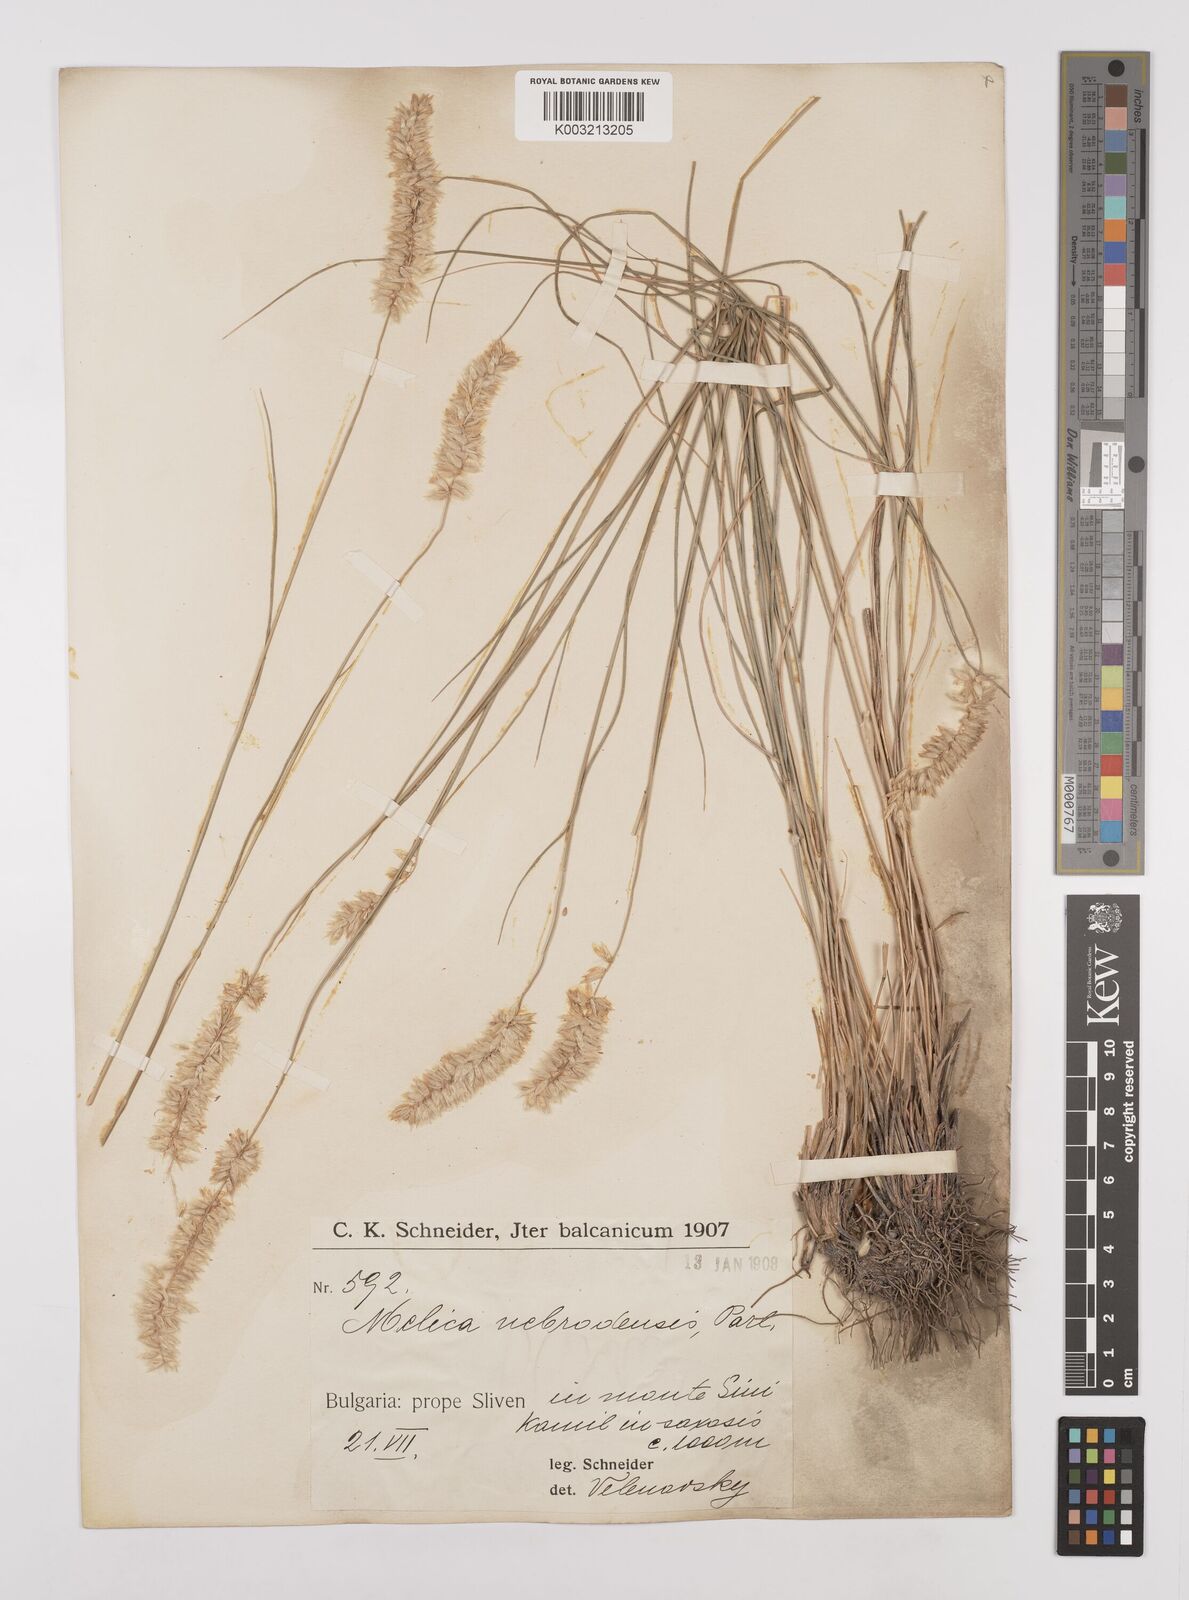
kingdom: Plantae
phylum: Tracheophyta
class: Liliopsida
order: Poales
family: Poaceae
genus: Melica
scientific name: Melica ciliata
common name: Hairy melicgrass
